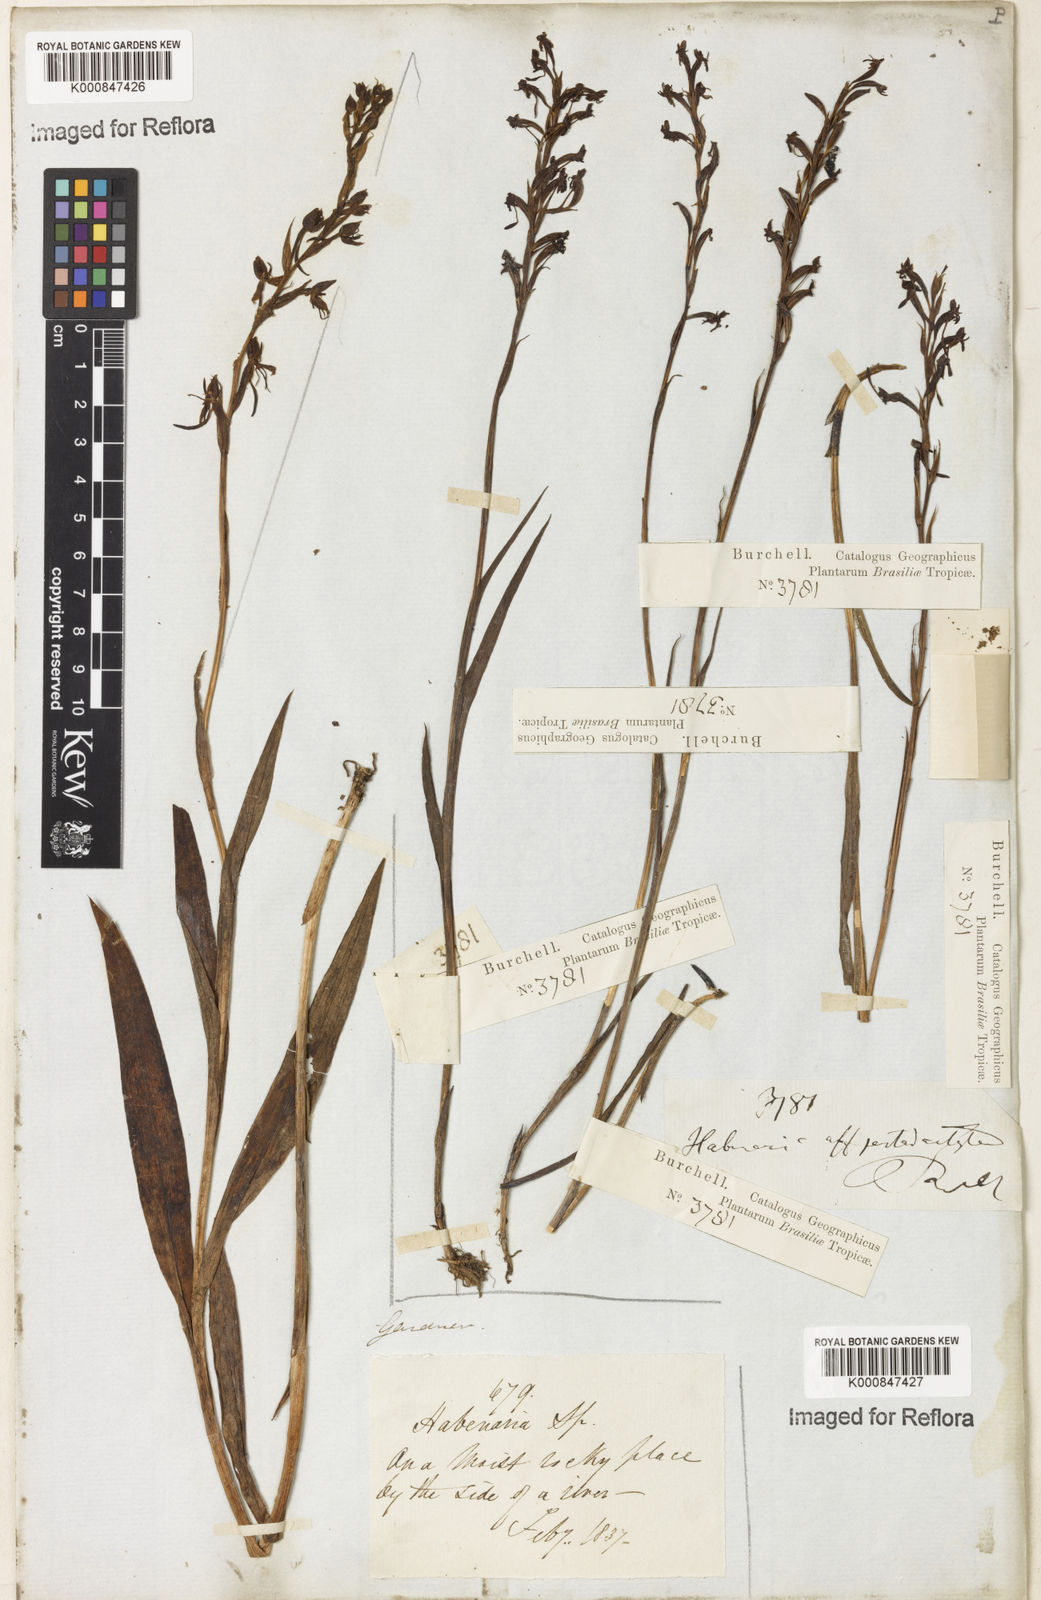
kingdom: Plantae
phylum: Tracheophyta
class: Liliopsida
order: Asparagales
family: Orchidaceae
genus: Habenaria
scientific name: Habenaria gracilis
